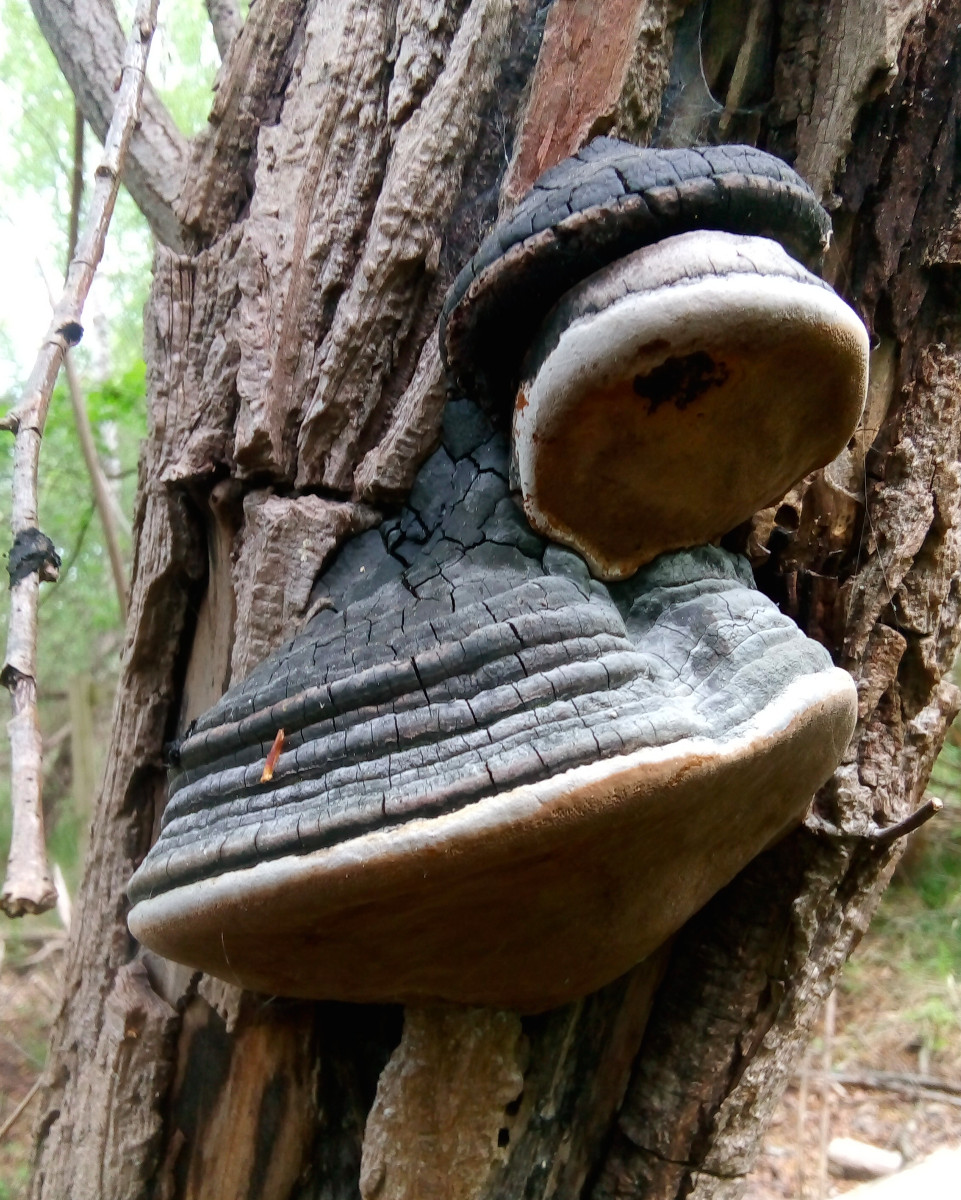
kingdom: Fungi
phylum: Basidiomycota
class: Agaricomycetes
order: Hymenochaetales
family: Hymenochaetaceae
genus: Phellinus
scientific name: Phellinus igniarius
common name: almindelig ildporesvamp
